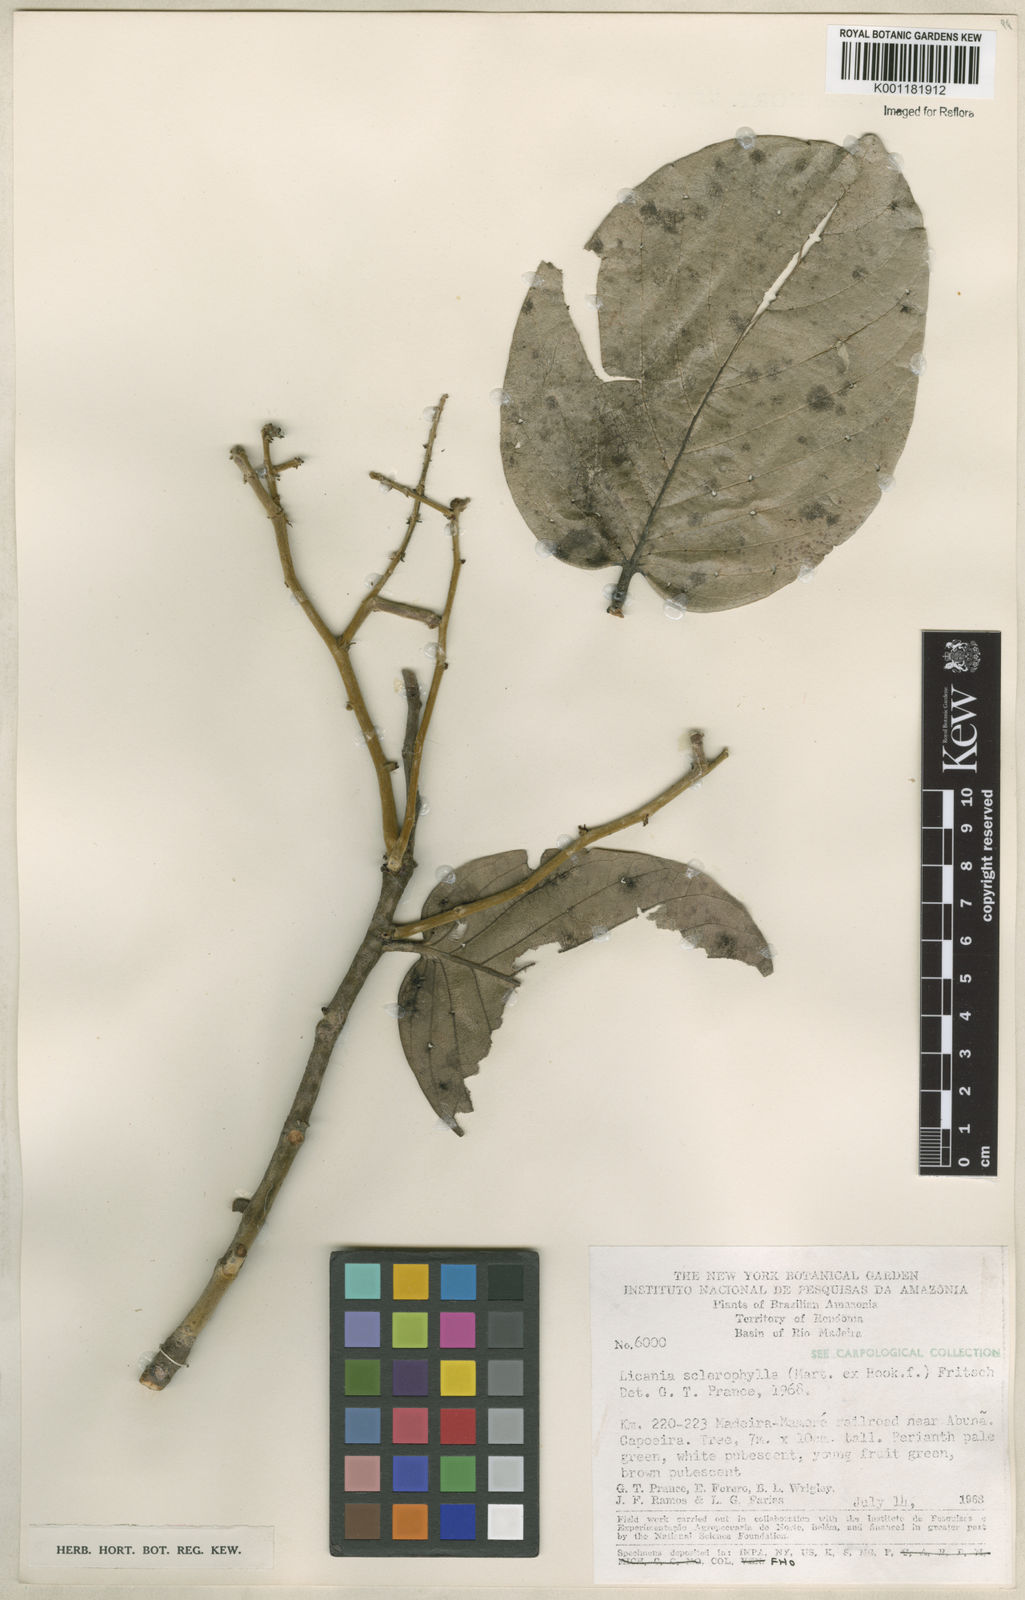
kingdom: Plantae
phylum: Tracheophyta
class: Magnoliopsida
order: Malpighiales
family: Chrysobalanaceae
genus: Leptobalanus
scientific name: Leptobalanus sclerophyllus
